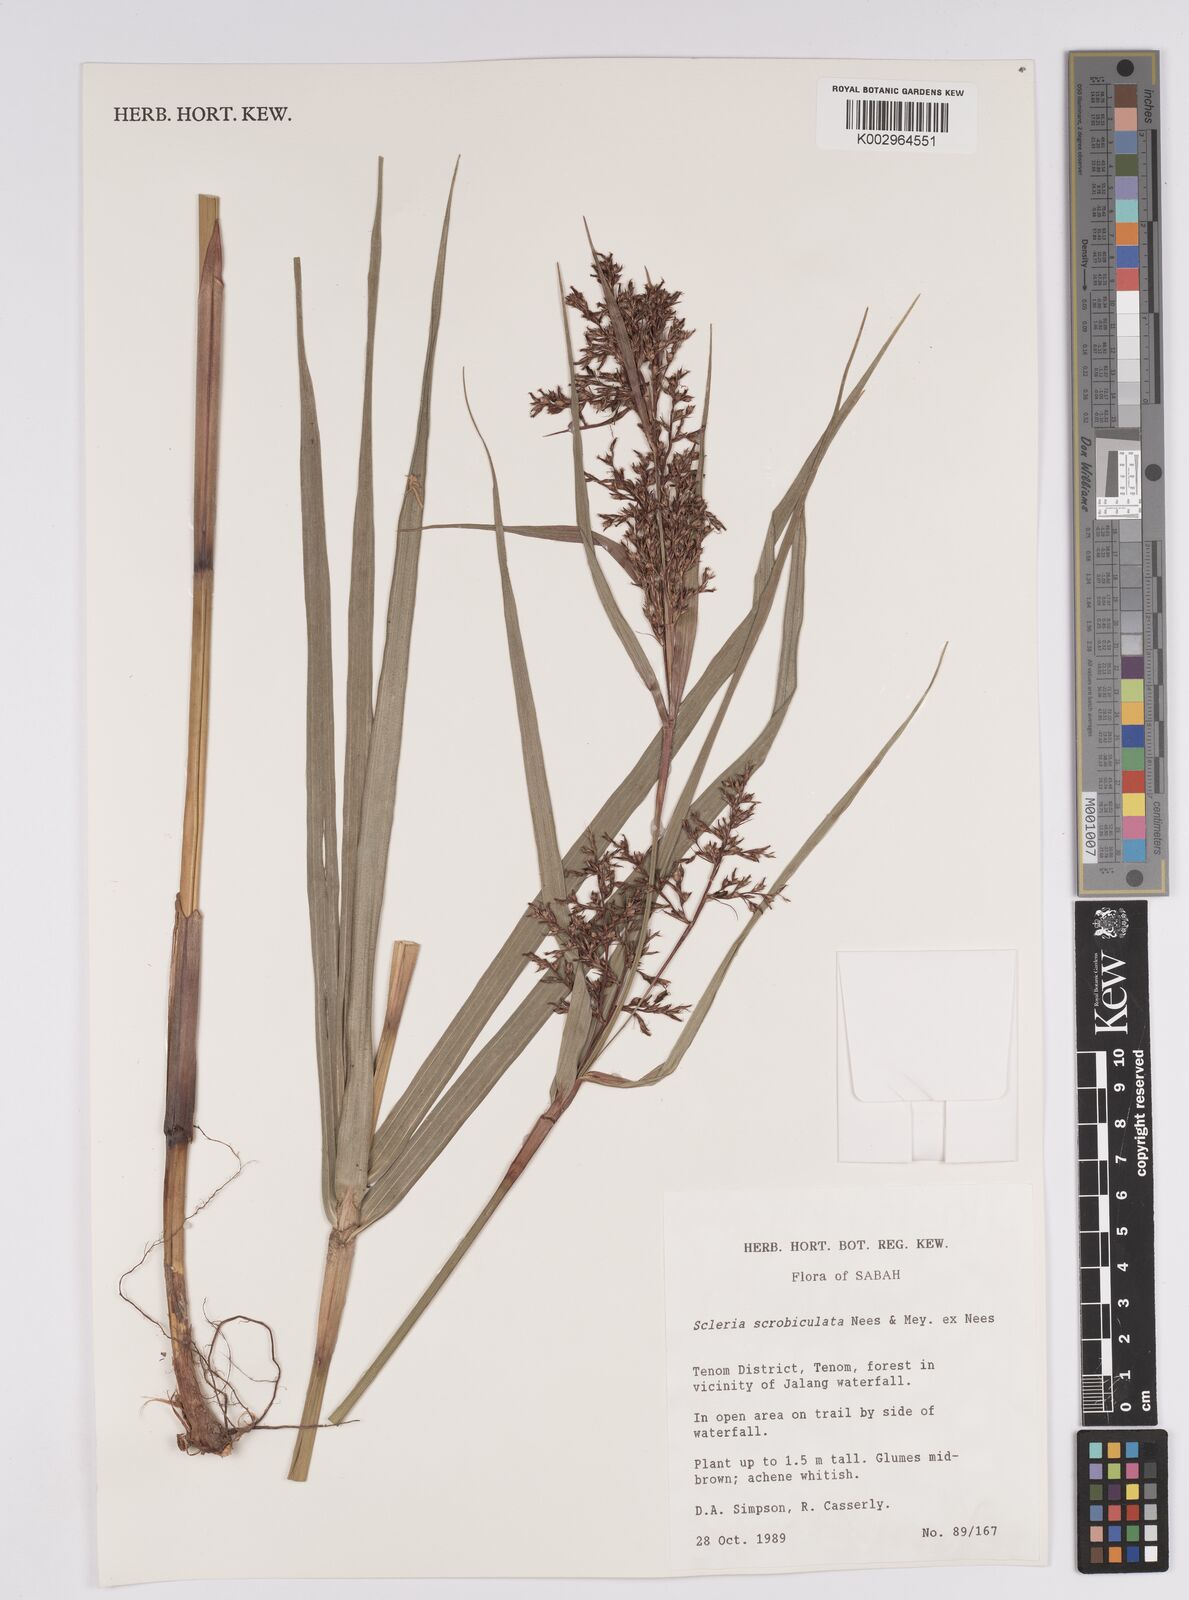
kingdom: Plantae
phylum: Tracheophyta
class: Liliopsida
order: Poales
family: Cyperaceae
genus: Scleria
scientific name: Scleria scrobiculata
